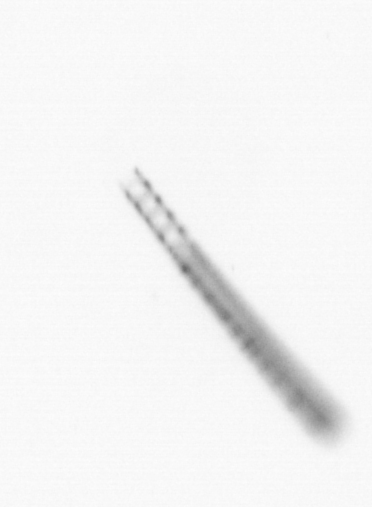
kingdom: Chromista
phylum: Ochrophyta
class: Bacillariophyceae
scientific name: Bacillariophyceae
